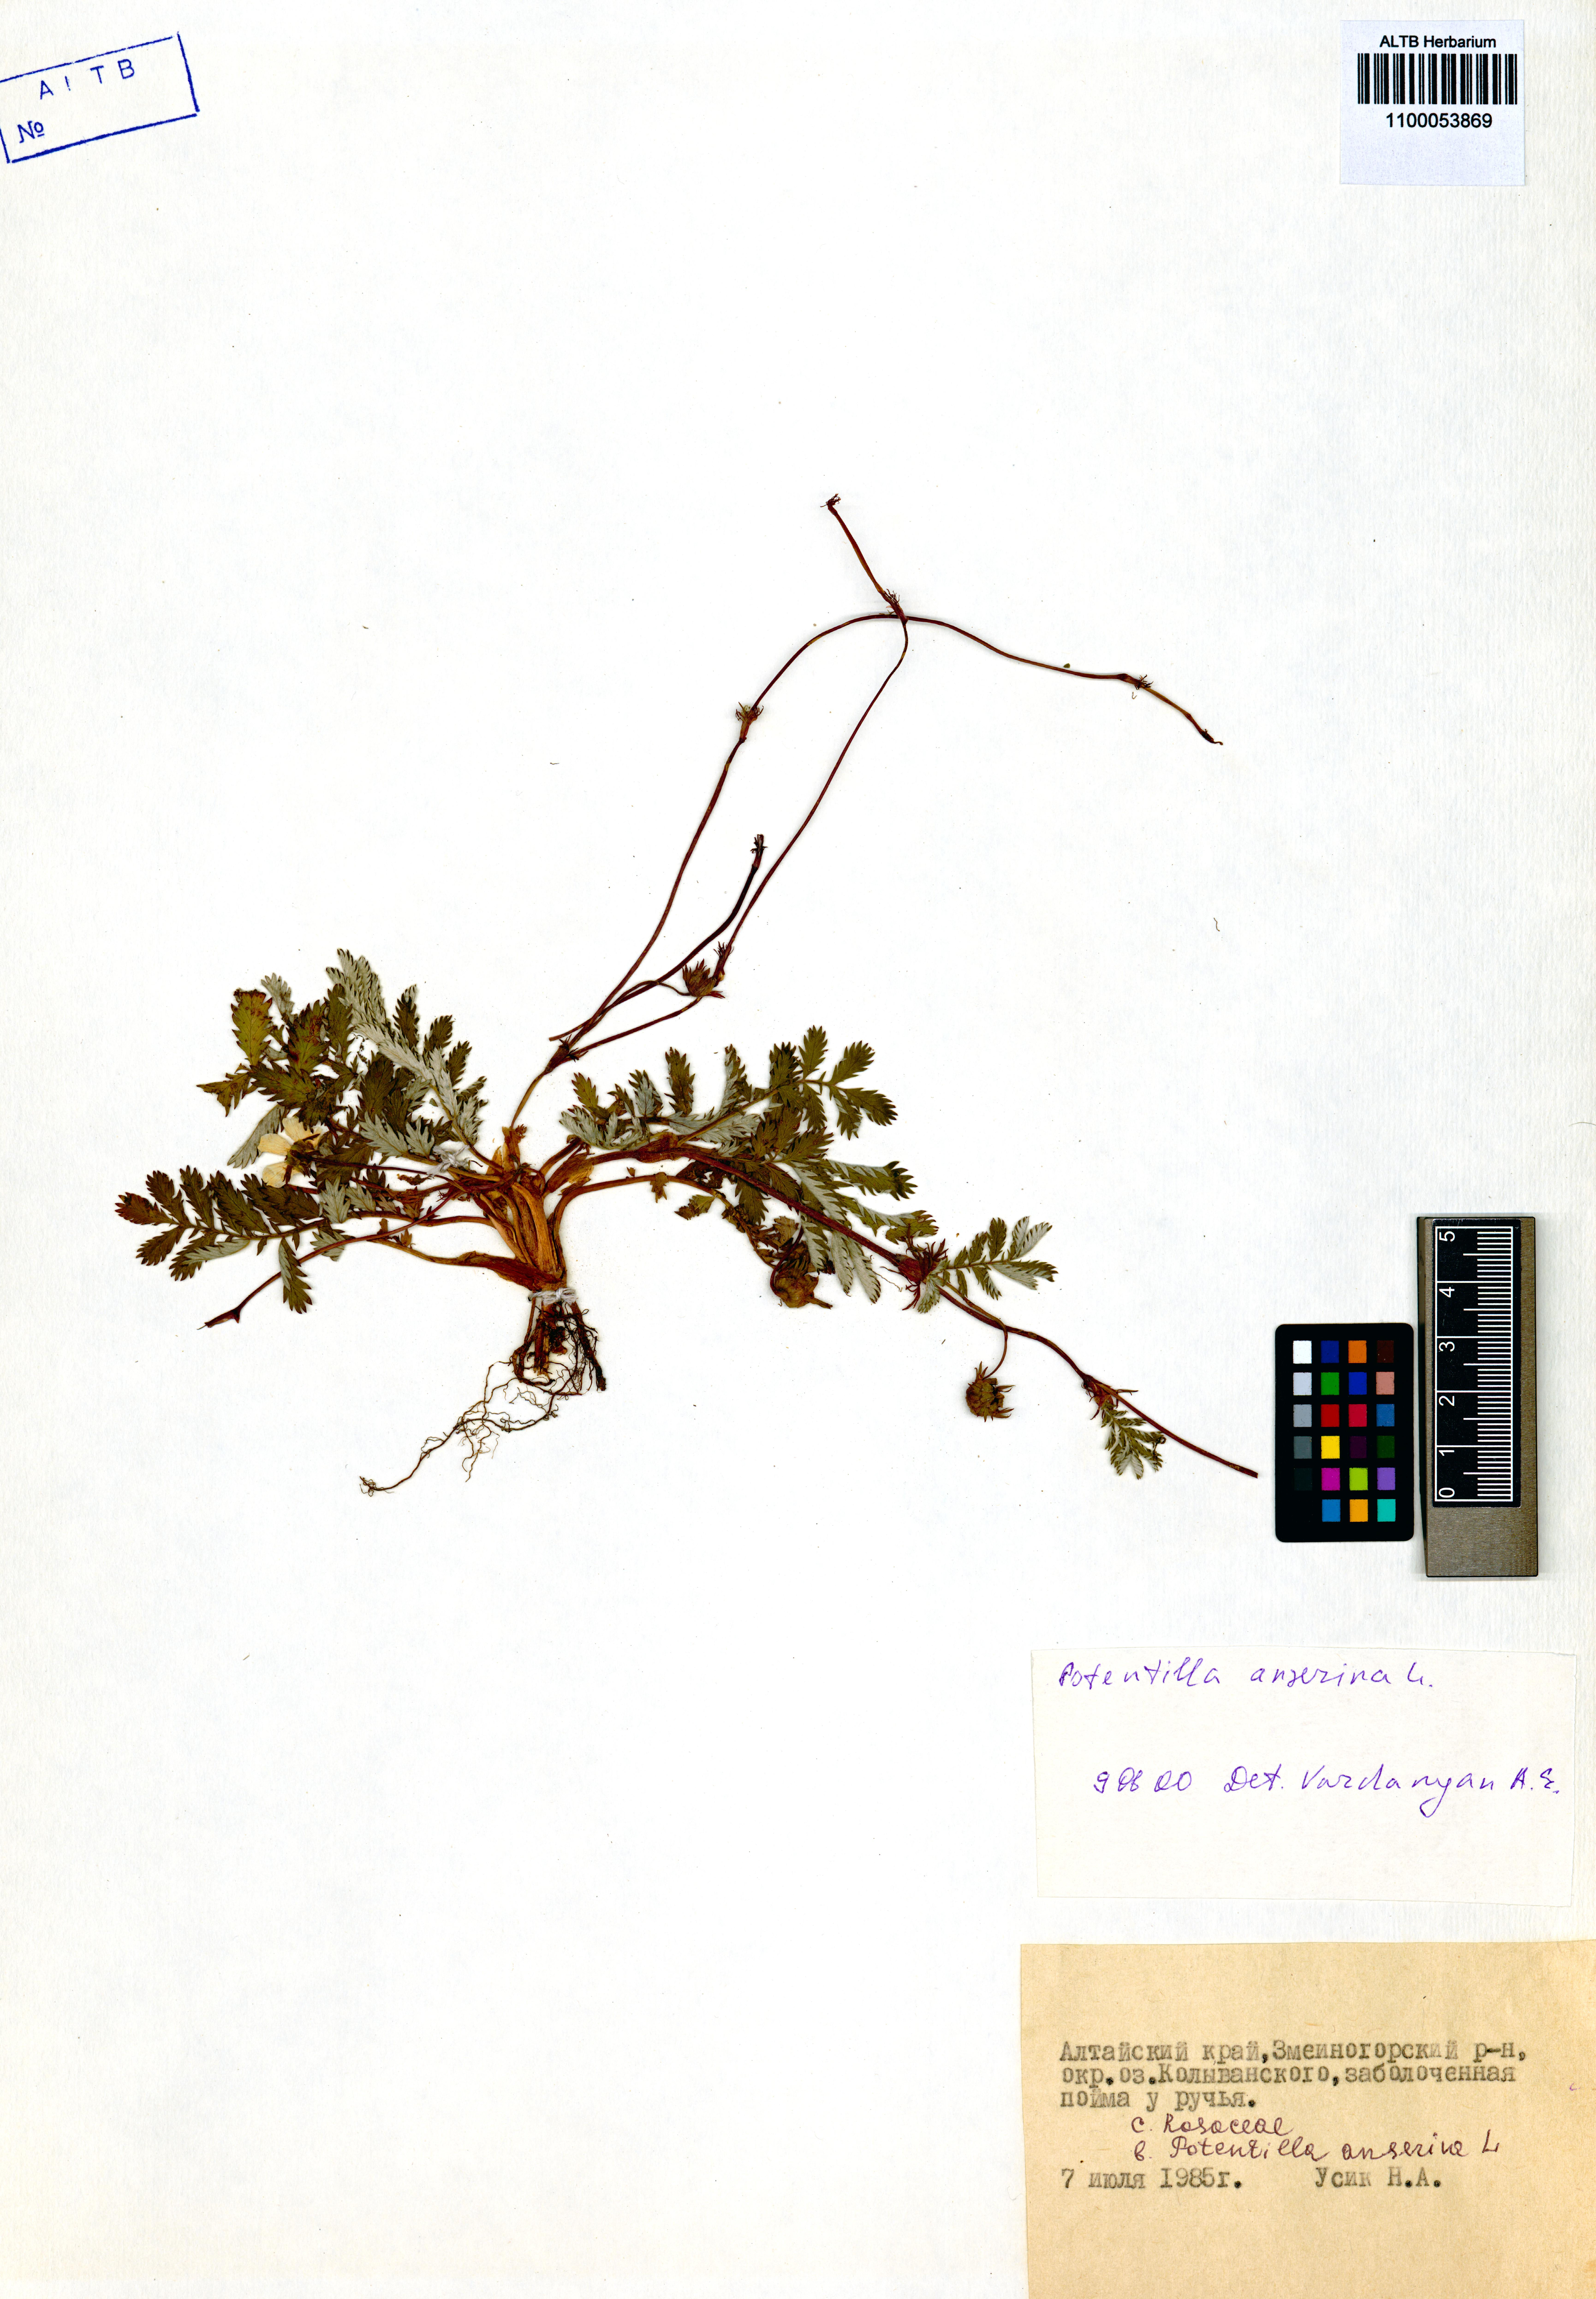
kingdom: Plantae
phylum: Tracheophyta
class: Magnoliopsida
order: Rosales
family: Rosaceae
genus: Argentina
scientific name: Argentina anserina
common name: Common silverweed
